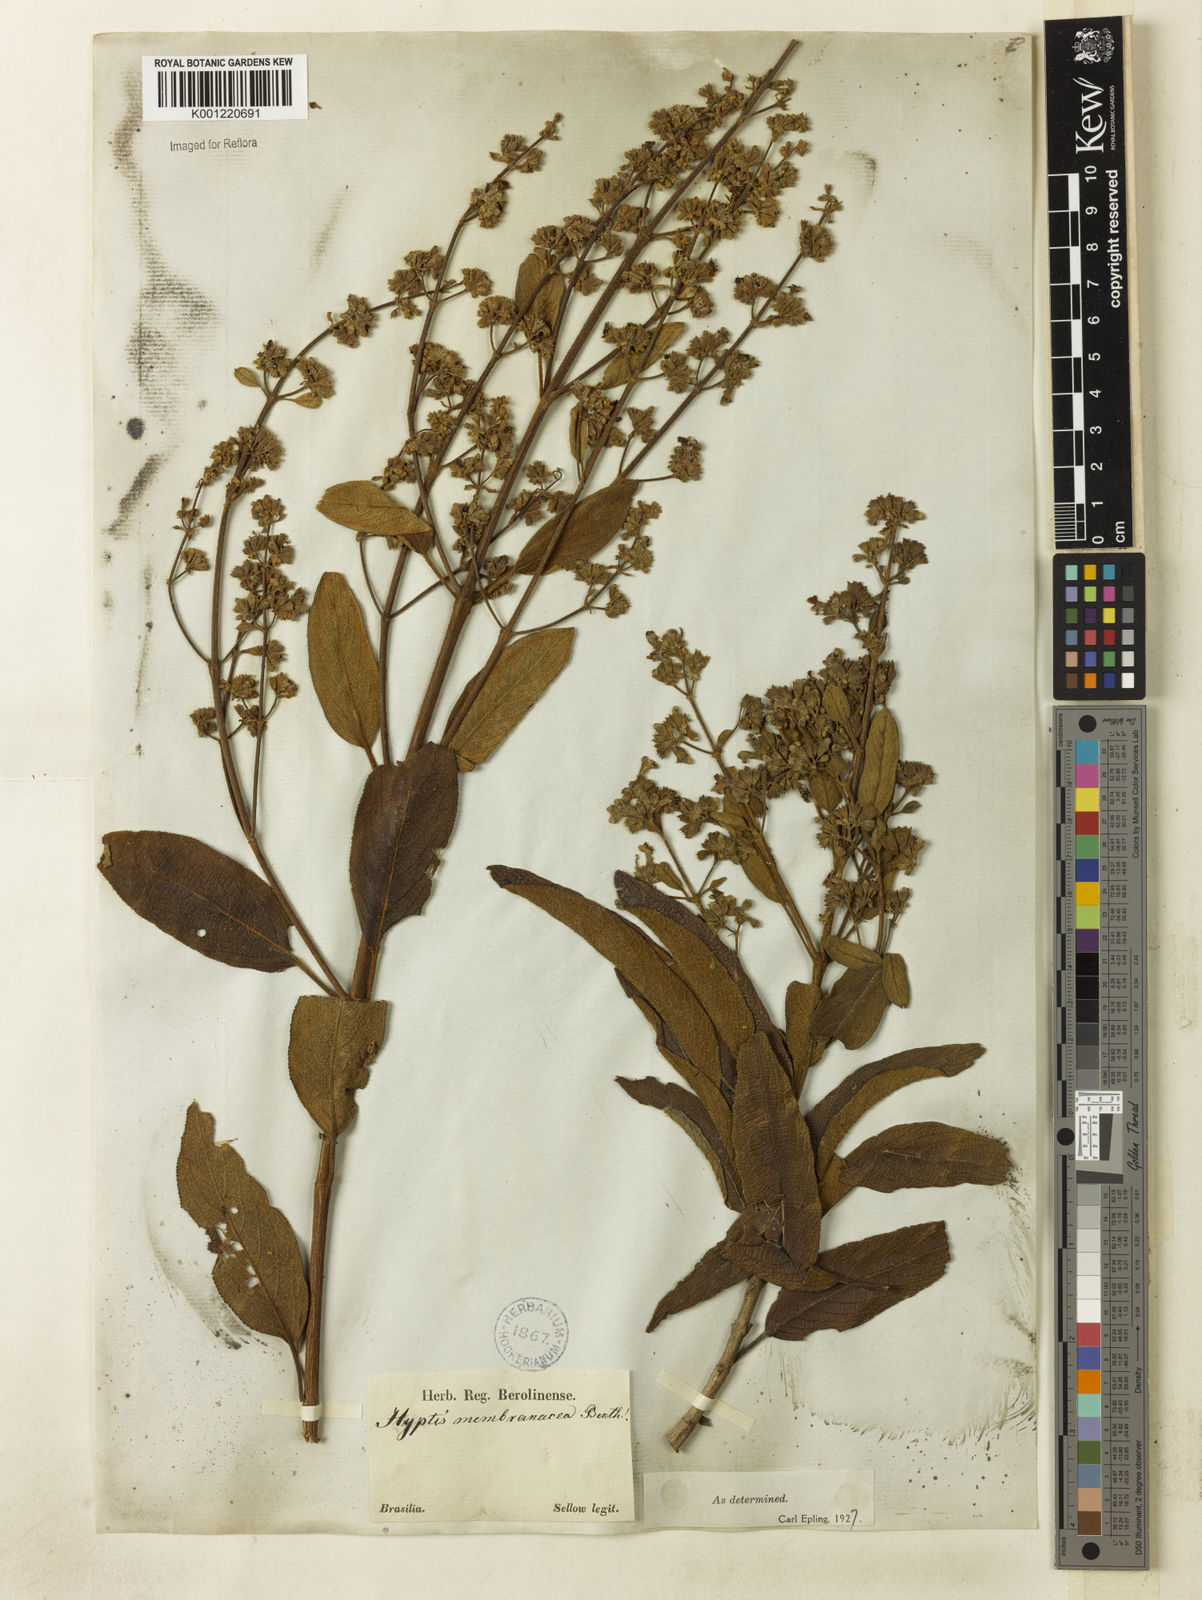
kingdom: Plantae
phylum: Tracheophyta
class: Magnoliopsida
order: Lamiales
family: Lamiaceae
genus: Hyptidendron
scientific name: Hyptidendron asperrimum
